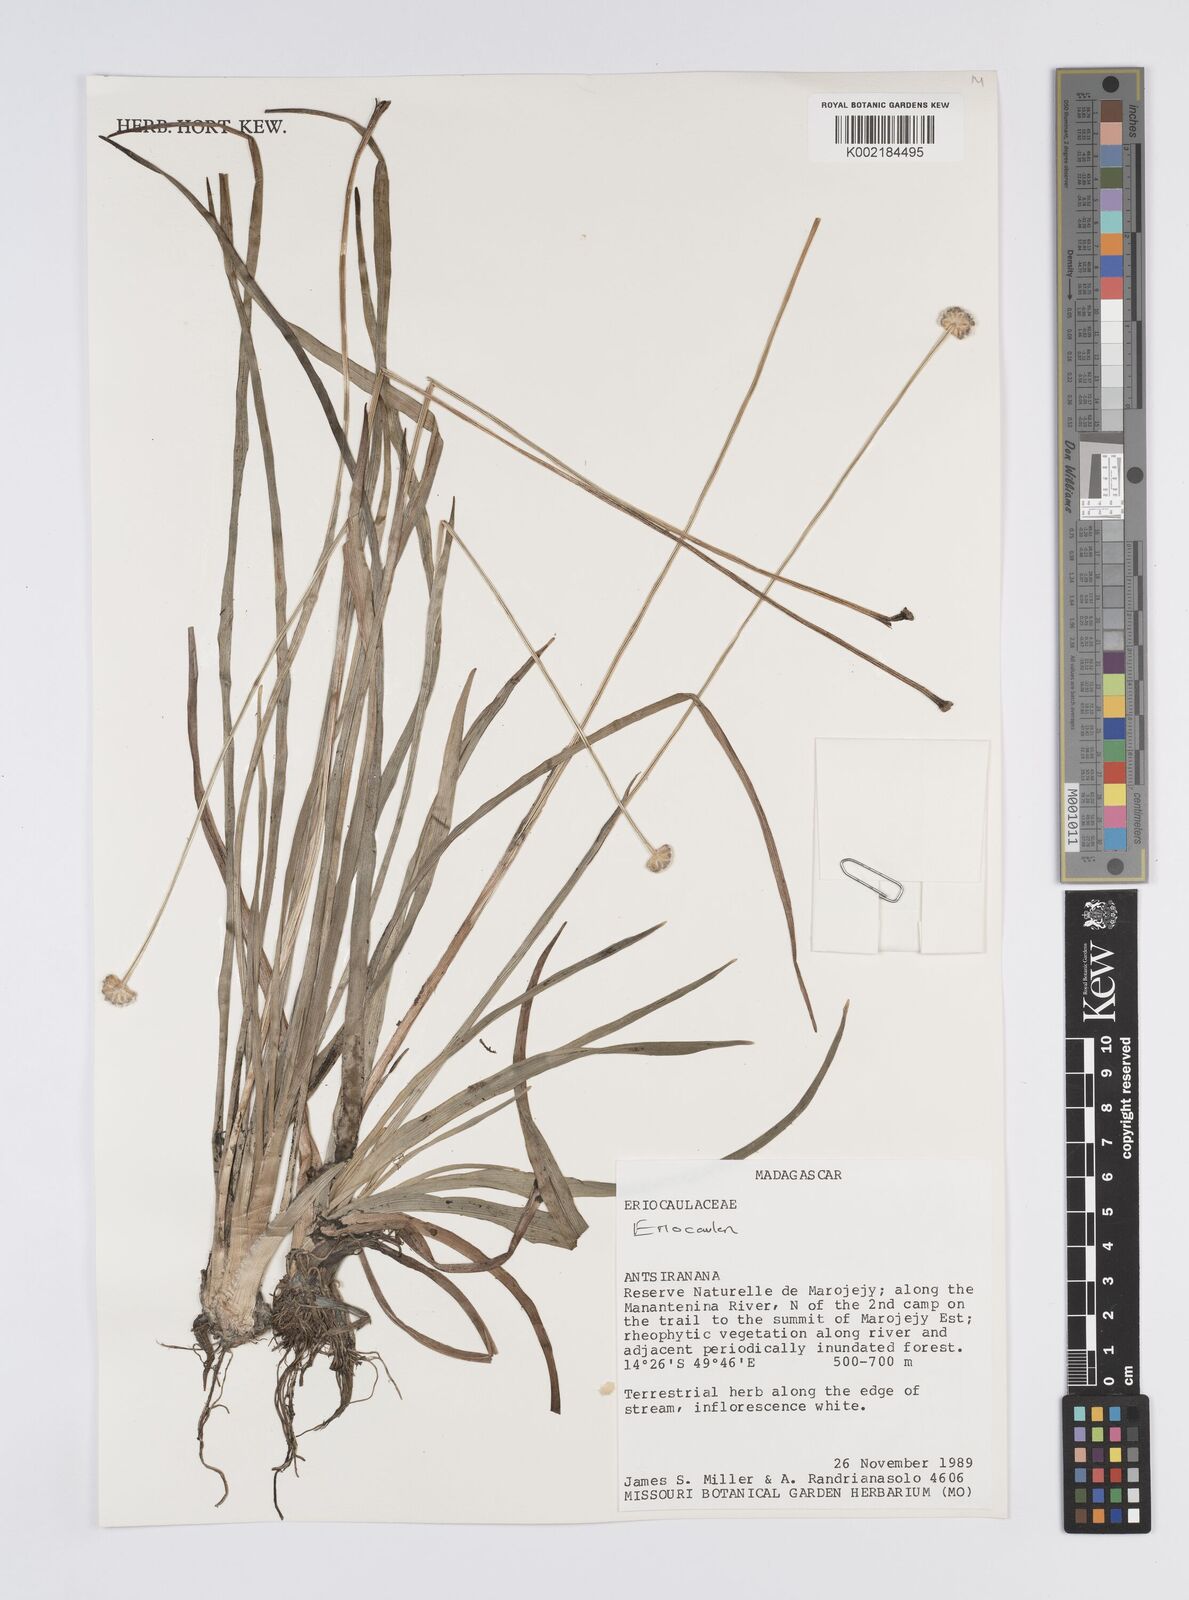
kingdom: Plantae
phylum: Tracheophyta
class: Liliopsida
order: Poales
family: Eriocaulaceae
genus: Eriocaulon
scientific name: Eriocaulon
